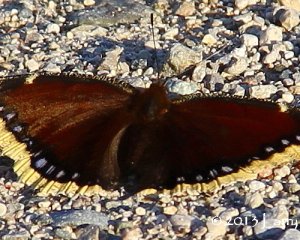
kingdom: Animalia
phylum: Arthropoda
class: Insecta
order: Lepidoptera
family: Nymphalidae
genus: Nymphalis
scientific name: Nymphalis antiopa
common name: Mourning Cloak
